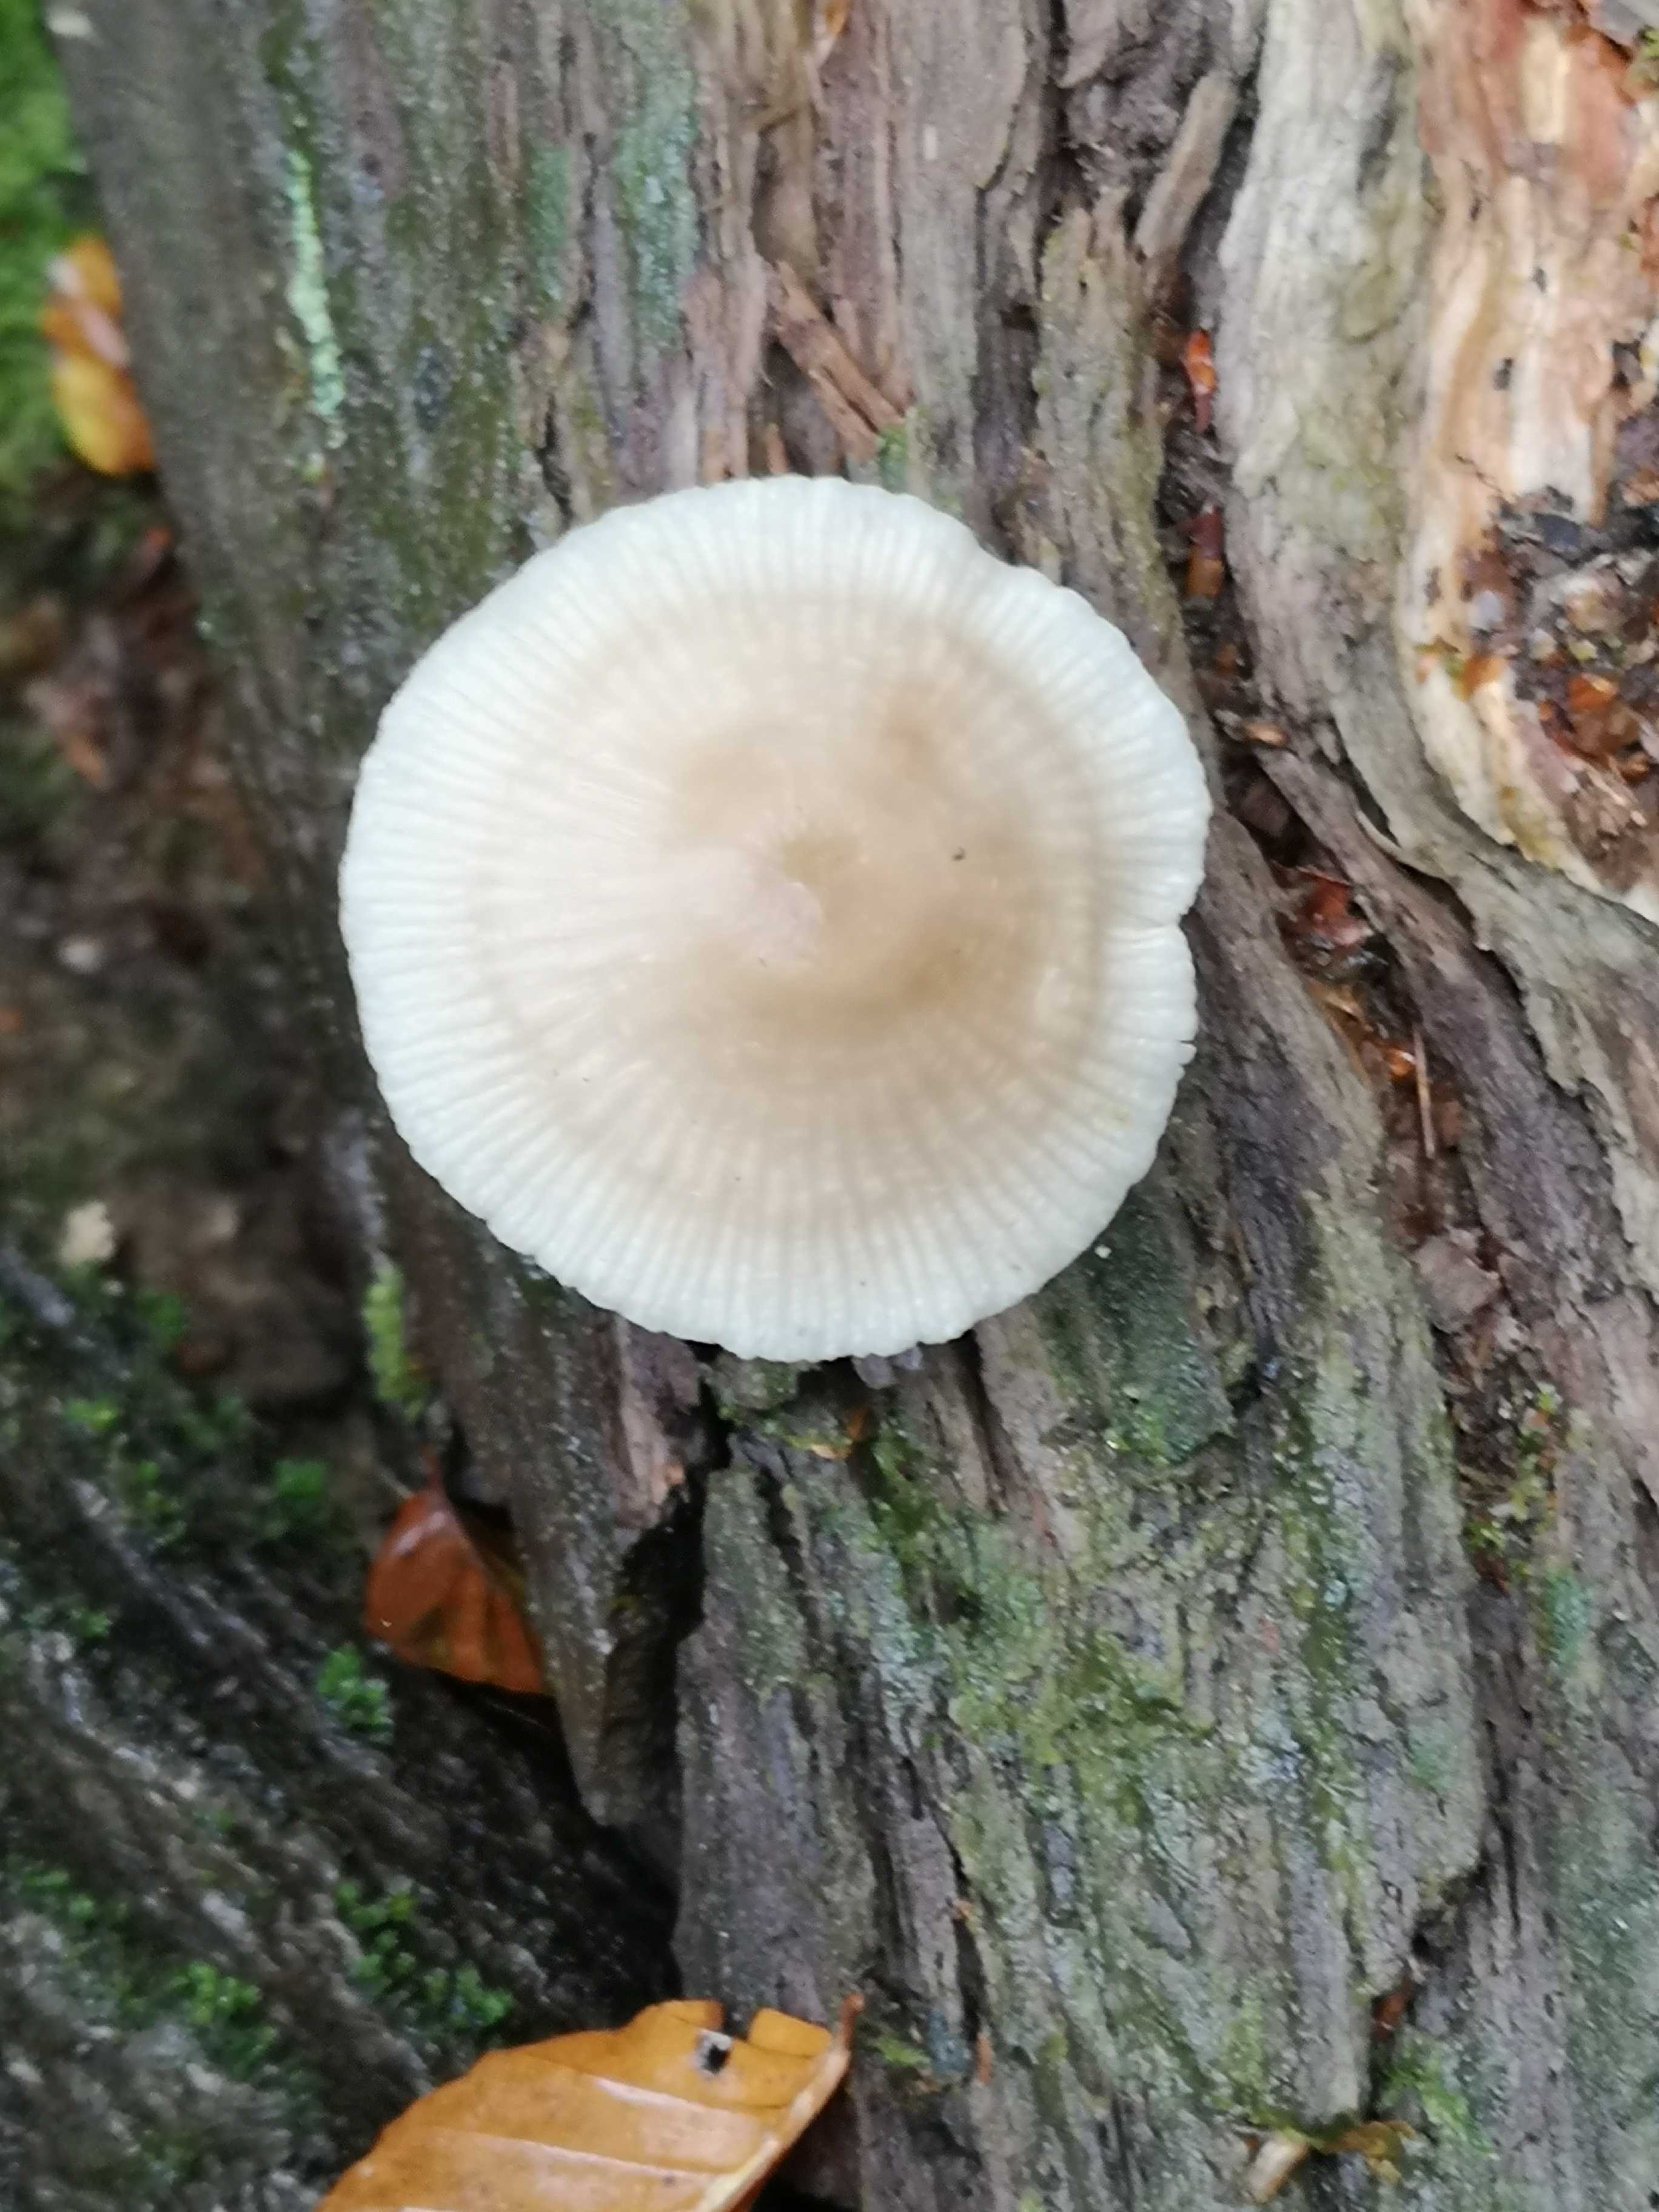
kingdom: Fungi
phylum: Basidiomycota
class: Agaricomycetes
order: Agaricales
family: Mycenaceae
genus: Mycena
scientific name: Mycena galericulata
